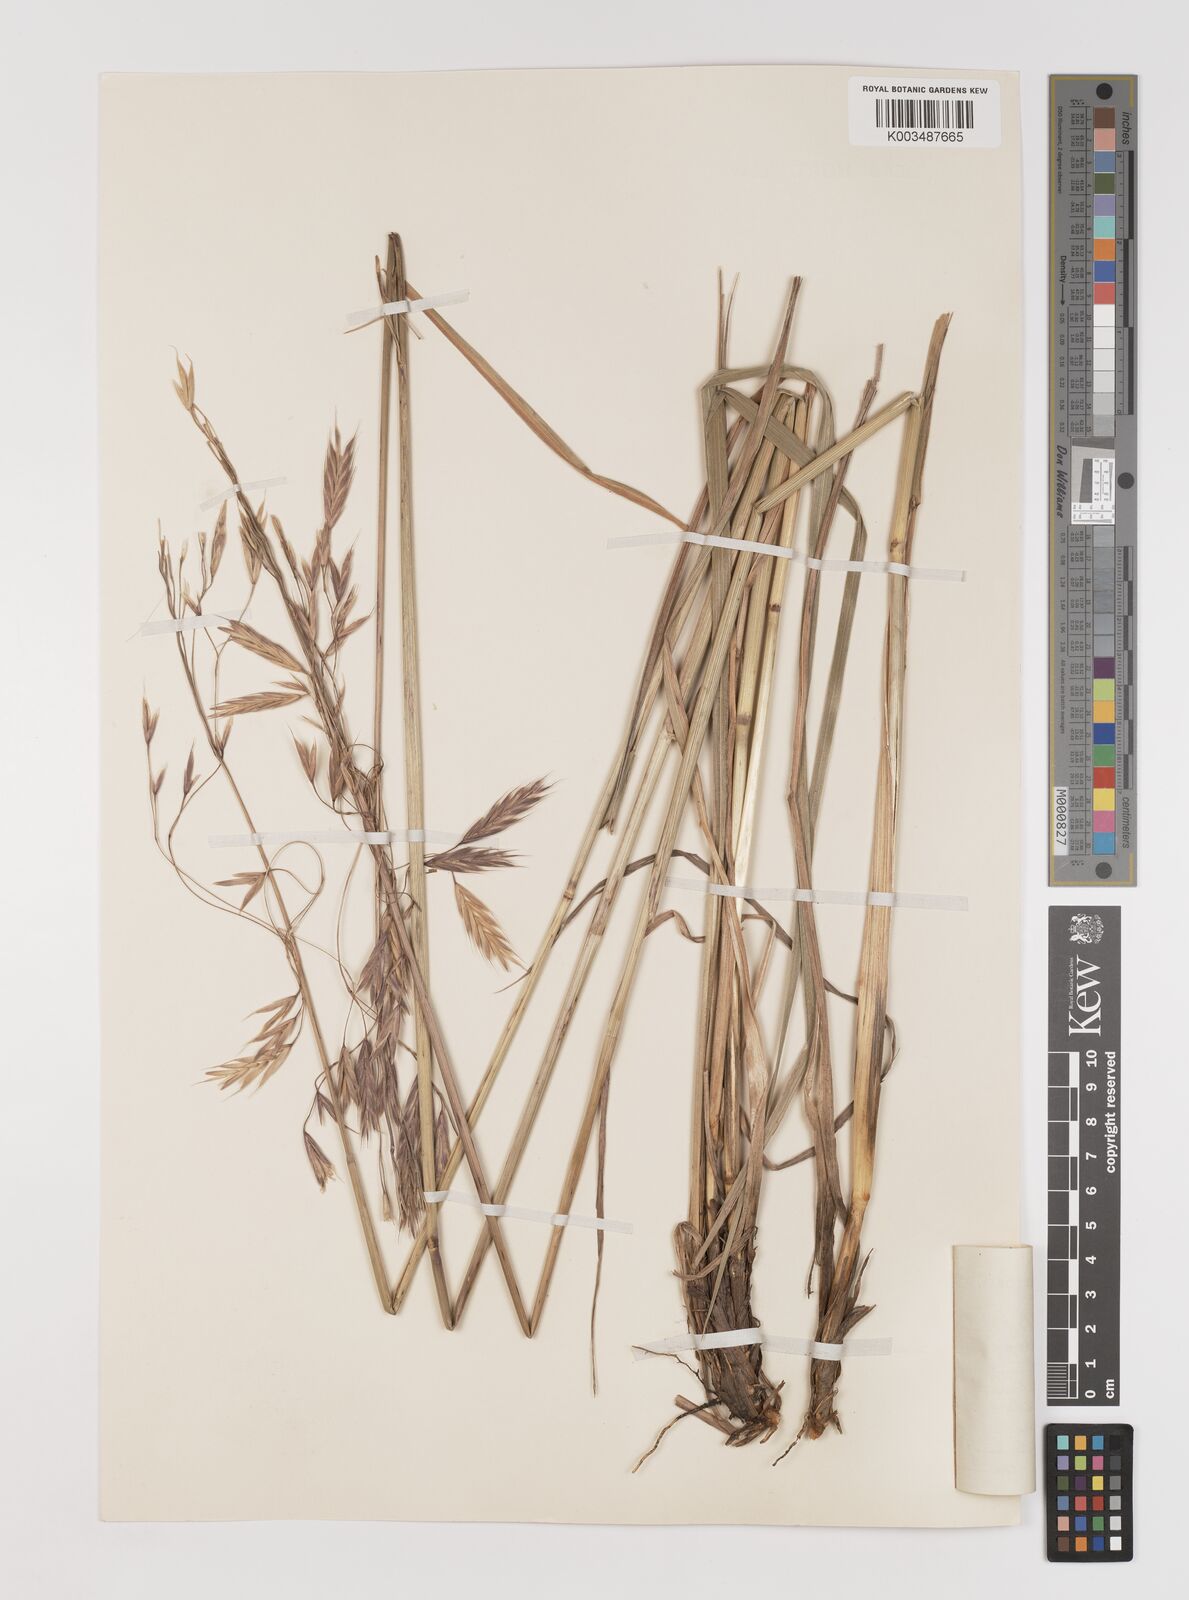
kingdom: Plantae
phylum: Tracheophyta
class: Liliopsida
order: Poales
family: Poaceae
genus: Bromus
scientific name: Bromus firmior
